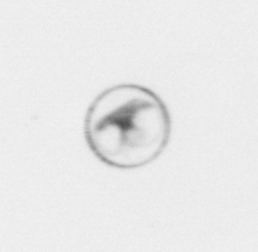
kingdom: Chromista
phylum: Myzozoa
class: Dinophyceae
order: Noctilucales
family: Noctilucaceae
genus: Noctiluca
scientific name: Noctiluca scintillans
